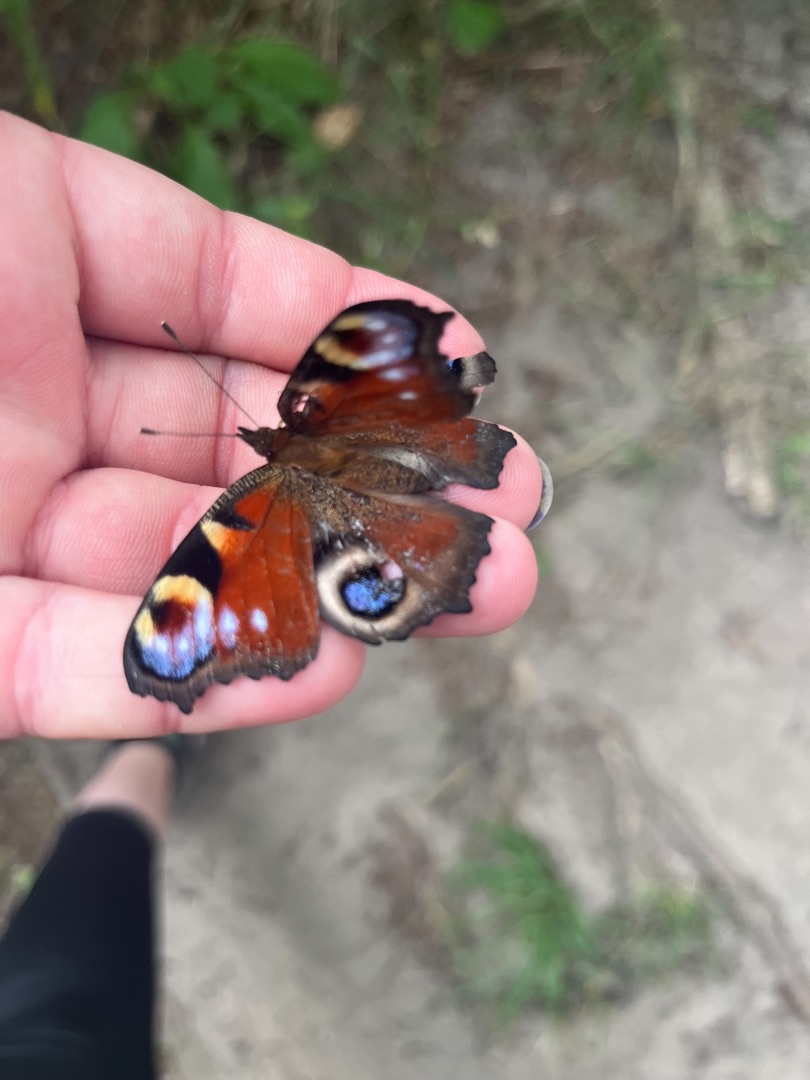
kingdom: Animalia
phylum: Arthropoda
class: Insecta
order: Lepidoptera
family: Nymphalidae
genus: Aglais
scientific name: Aglais io
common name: Dagpåfugleøje
